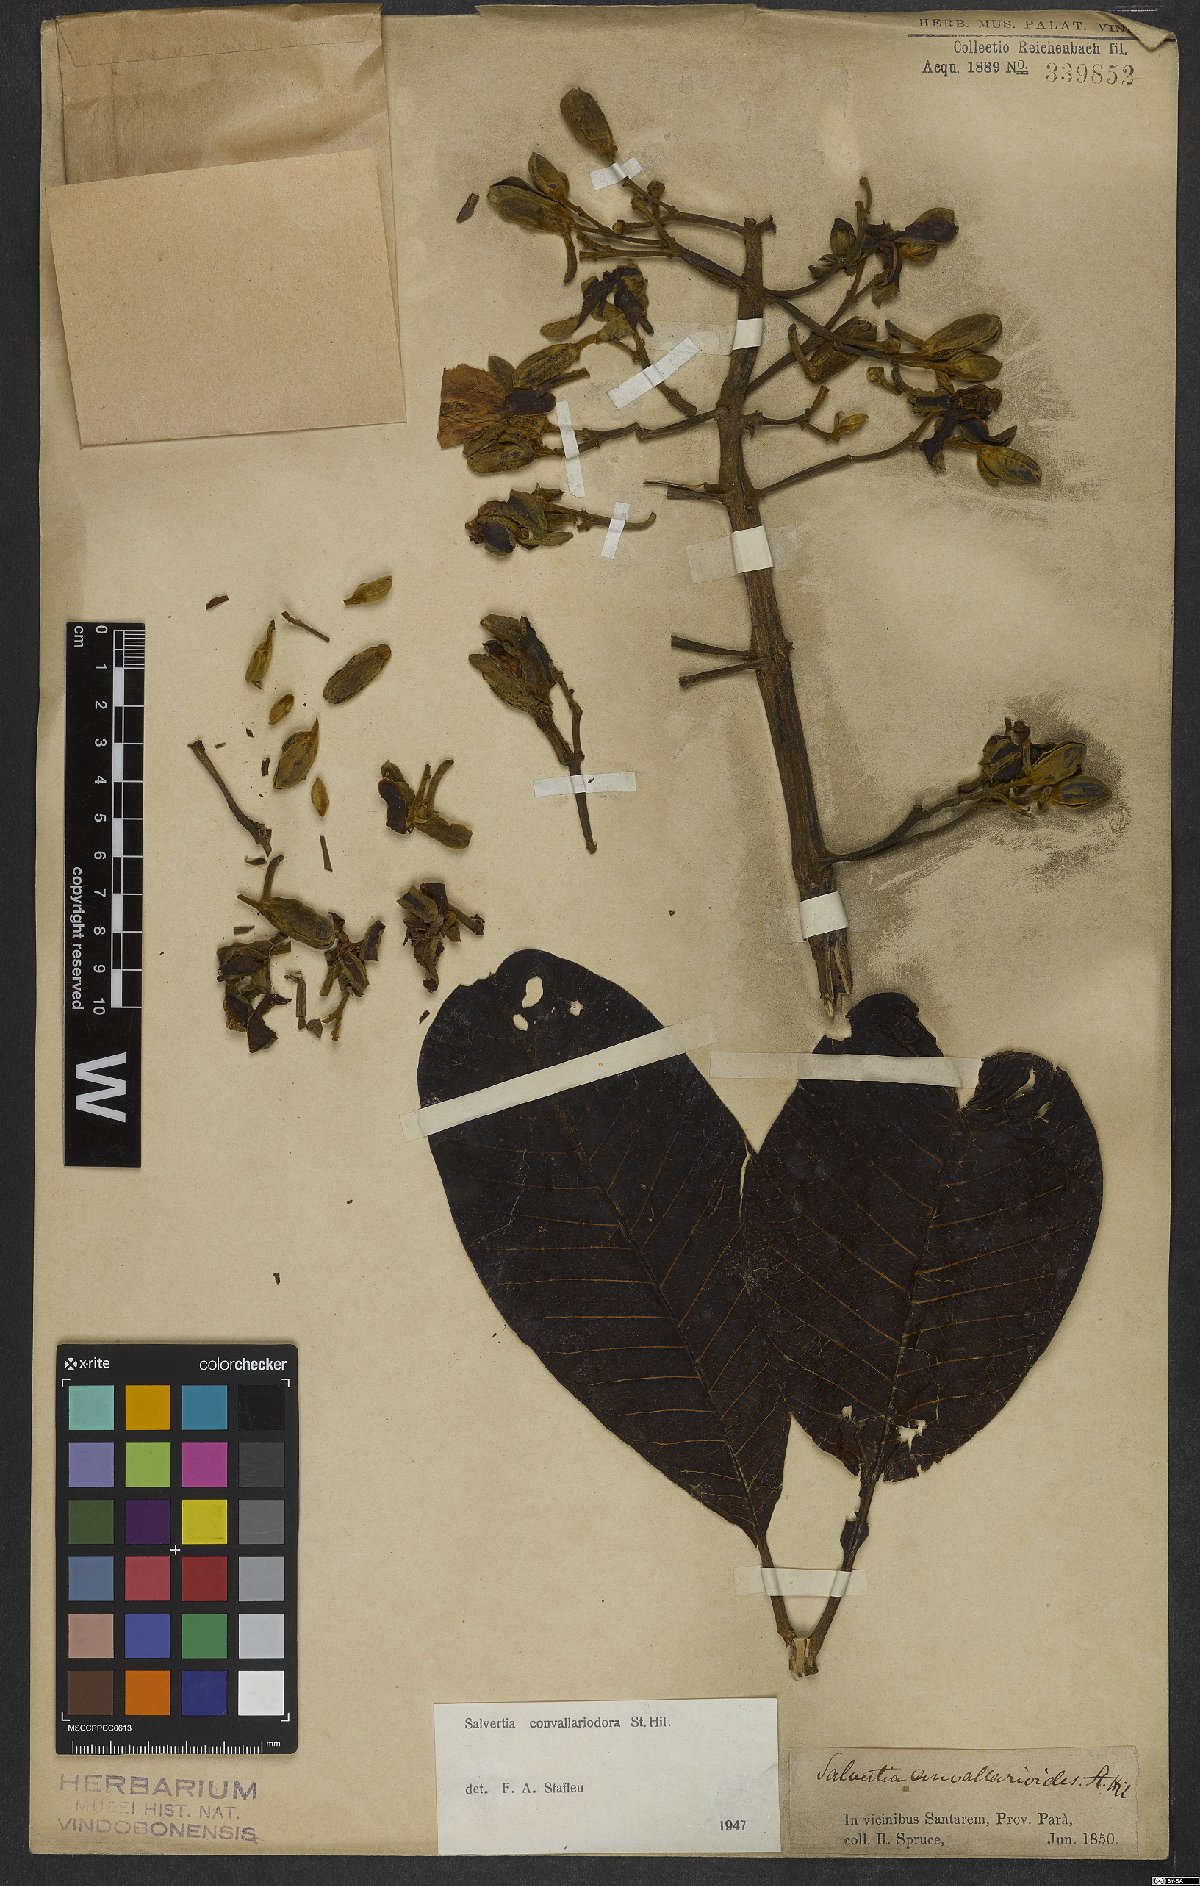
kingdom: Plantae
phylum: Tracheophyta
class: Magnoliopsida
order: Myrtales
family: Vochysiaceae
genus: Salvertia
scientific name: Salvertia convallariodora
